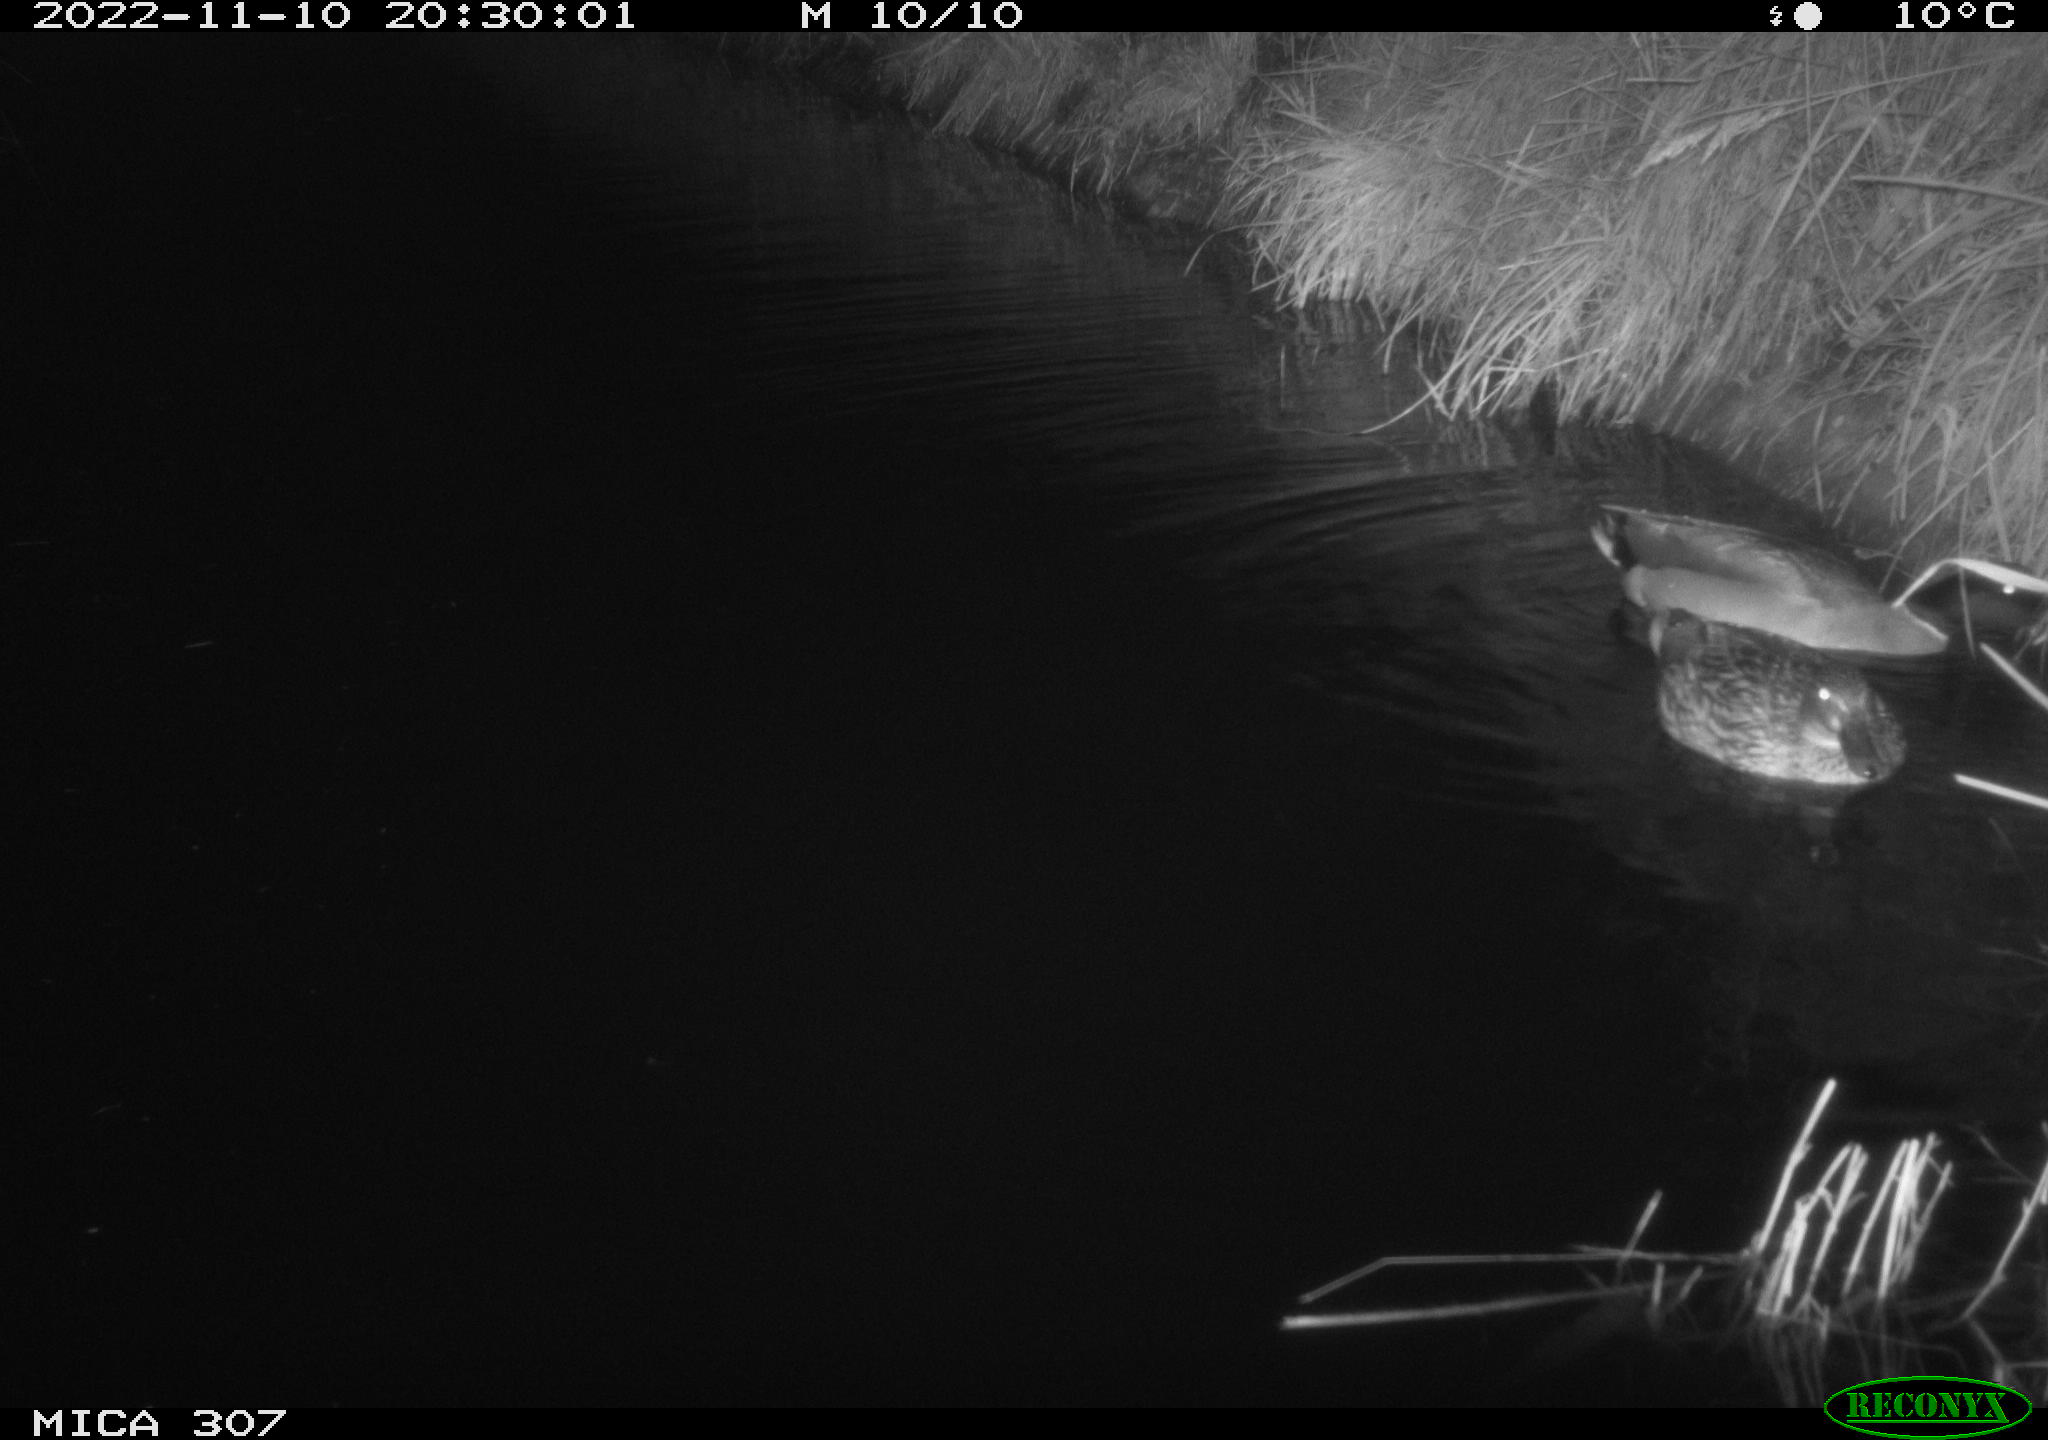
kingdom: Animalia
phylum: Chordata
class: Aves
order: Anseriformes
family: Anatidae
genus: Anas
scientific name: Anas
